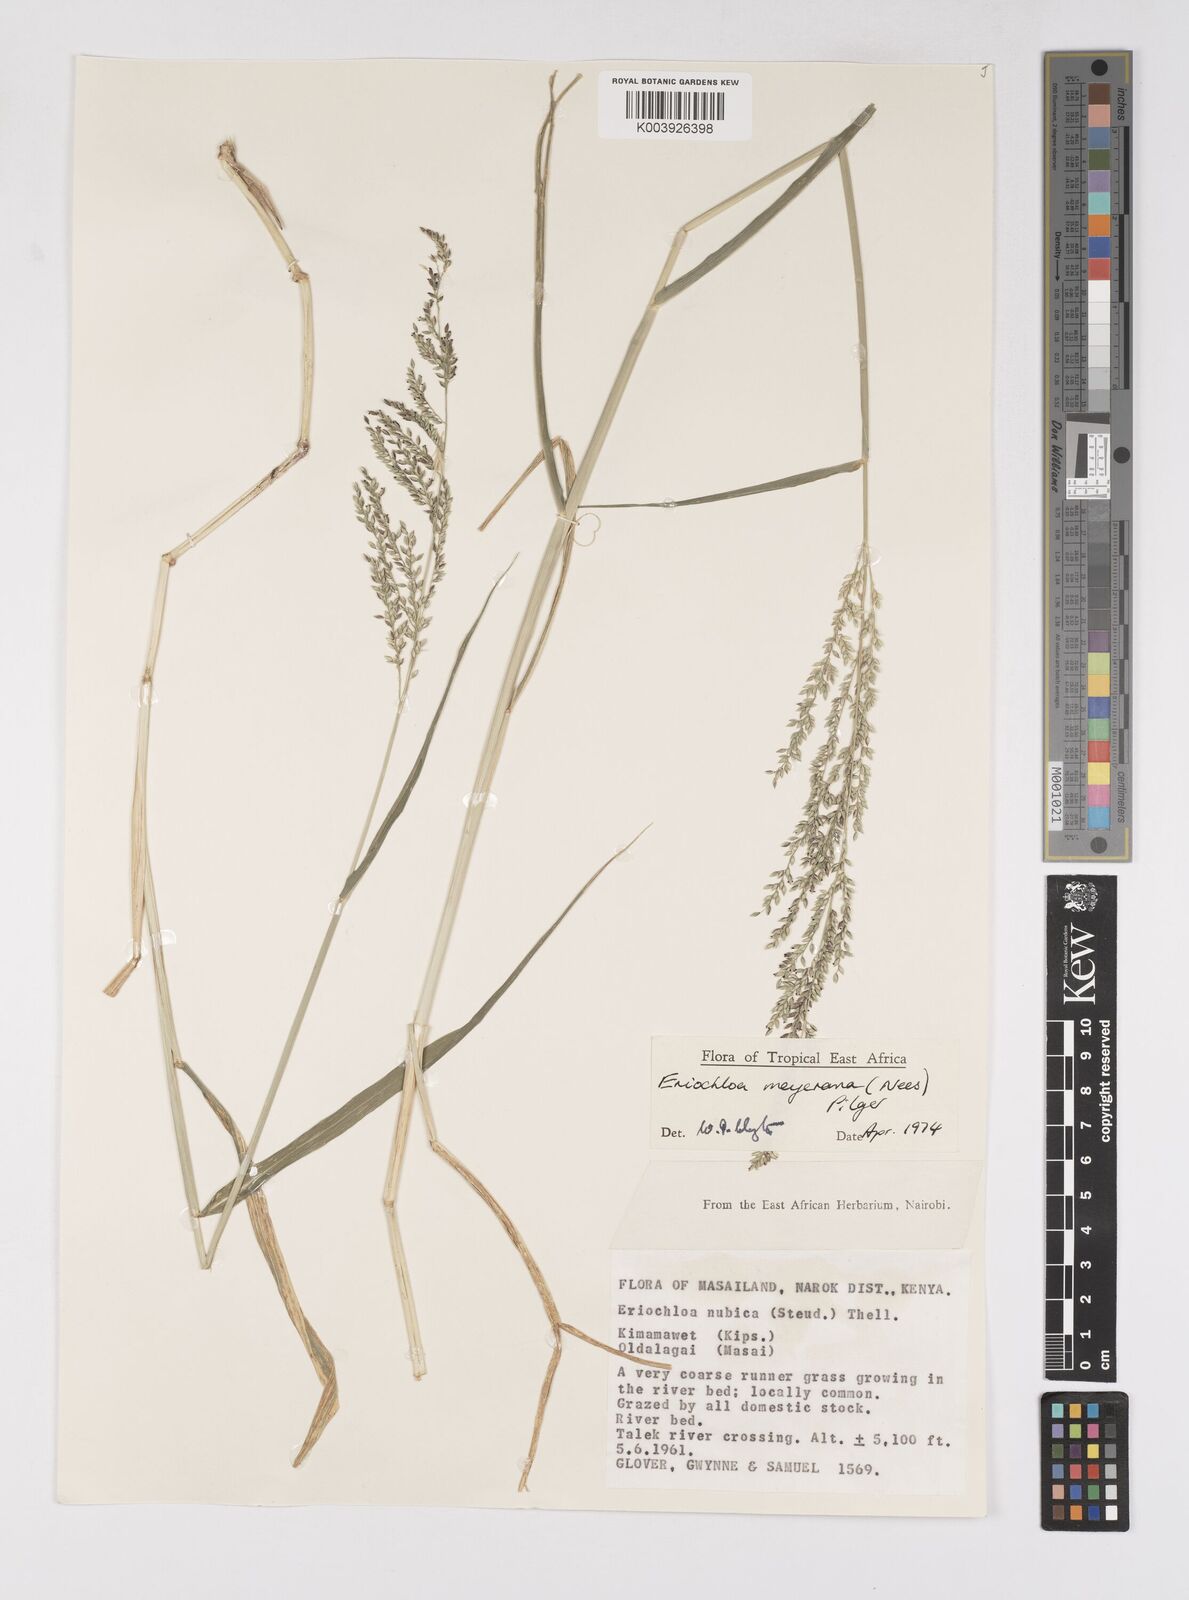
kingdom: Plantae
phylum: Tracheophyta
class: Liliopsida
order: Poales
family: Poaceae
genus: Eriochloa
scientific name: Eriochloa meyeriana
